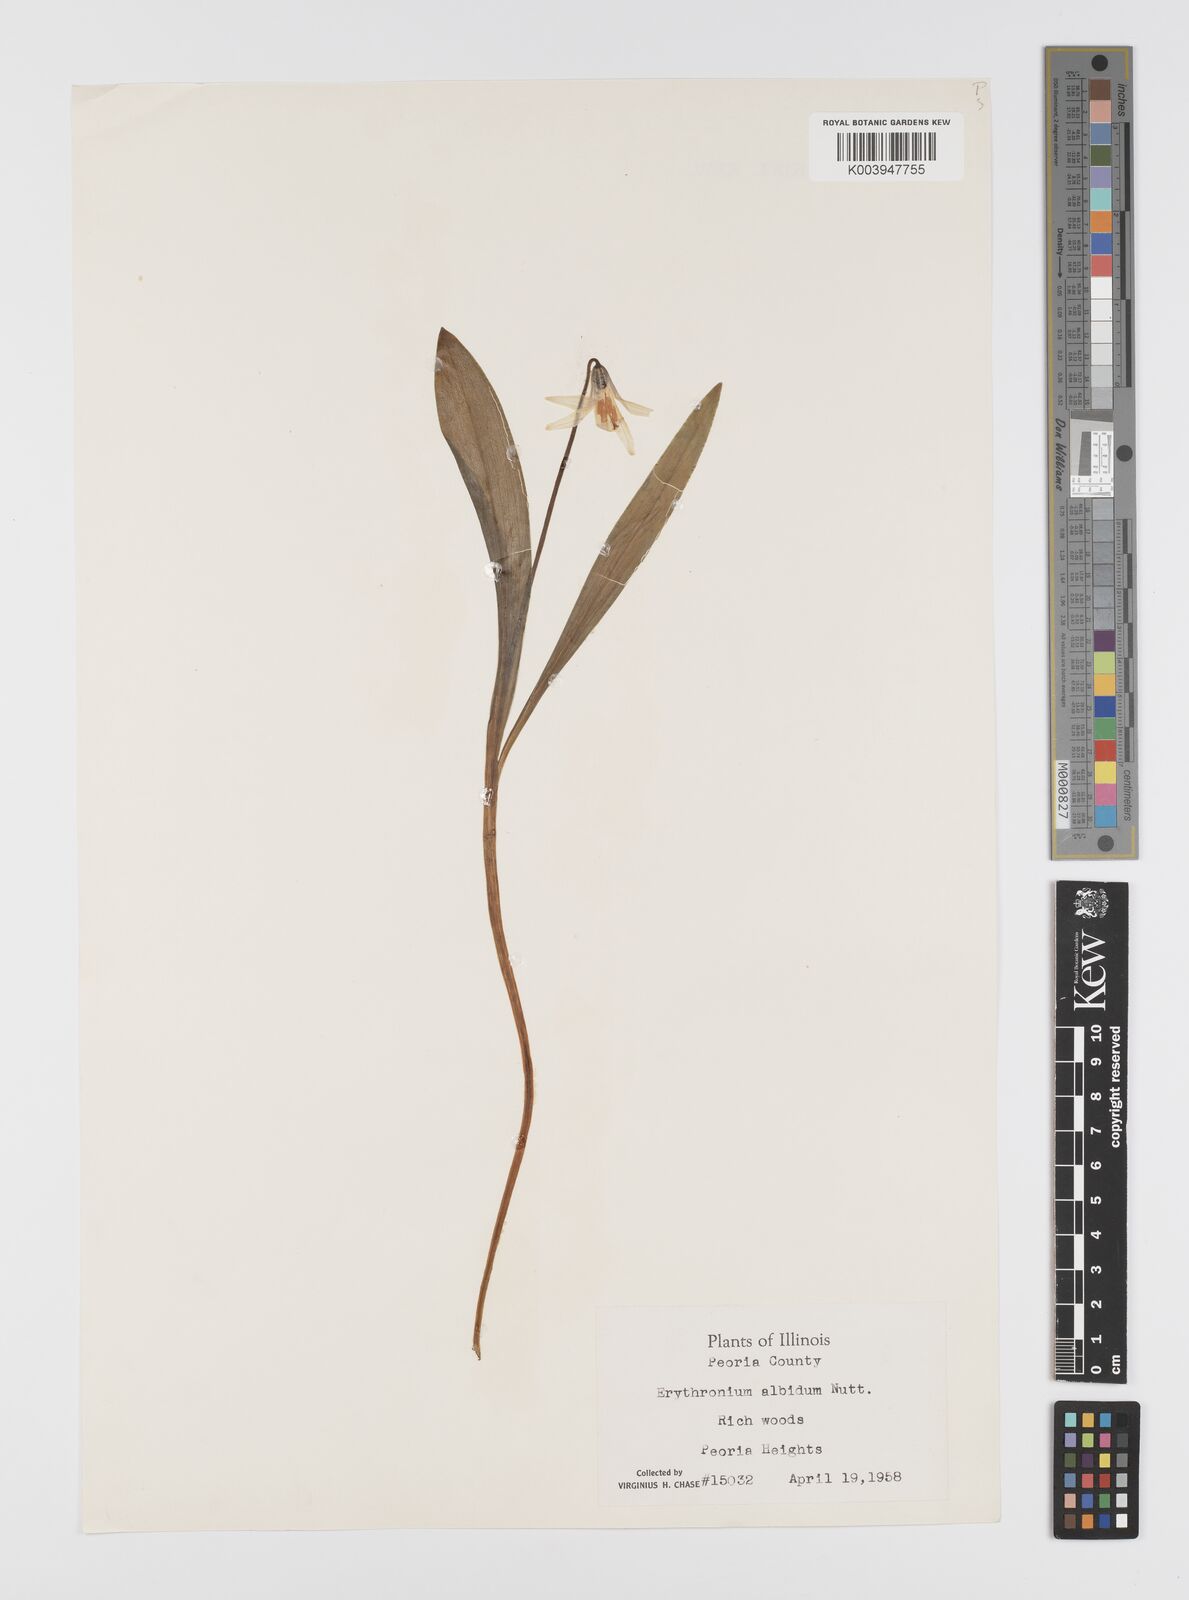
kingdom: Plantae
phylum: Tracheophyta
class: Liliopsida
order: Liliales
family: Liliaceae
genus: Erythronium
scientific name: Erythronium albidum
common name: White trout-lily
